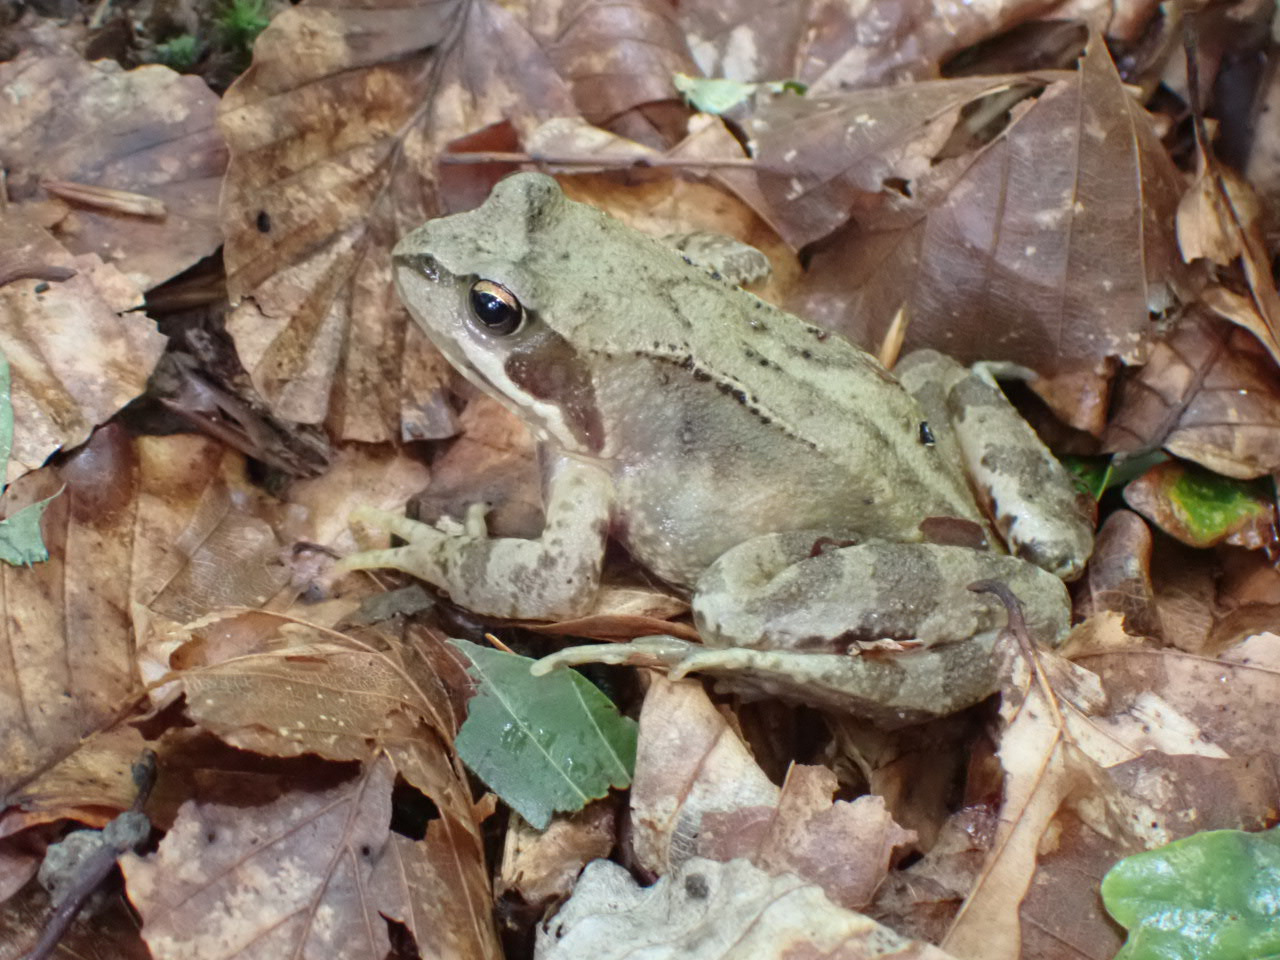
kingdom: Animalia
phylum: Chordata
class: Amphibia
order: Anura
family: Ranidae
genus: Rana
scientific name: Rana temporaria
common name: Butsnudet frø
